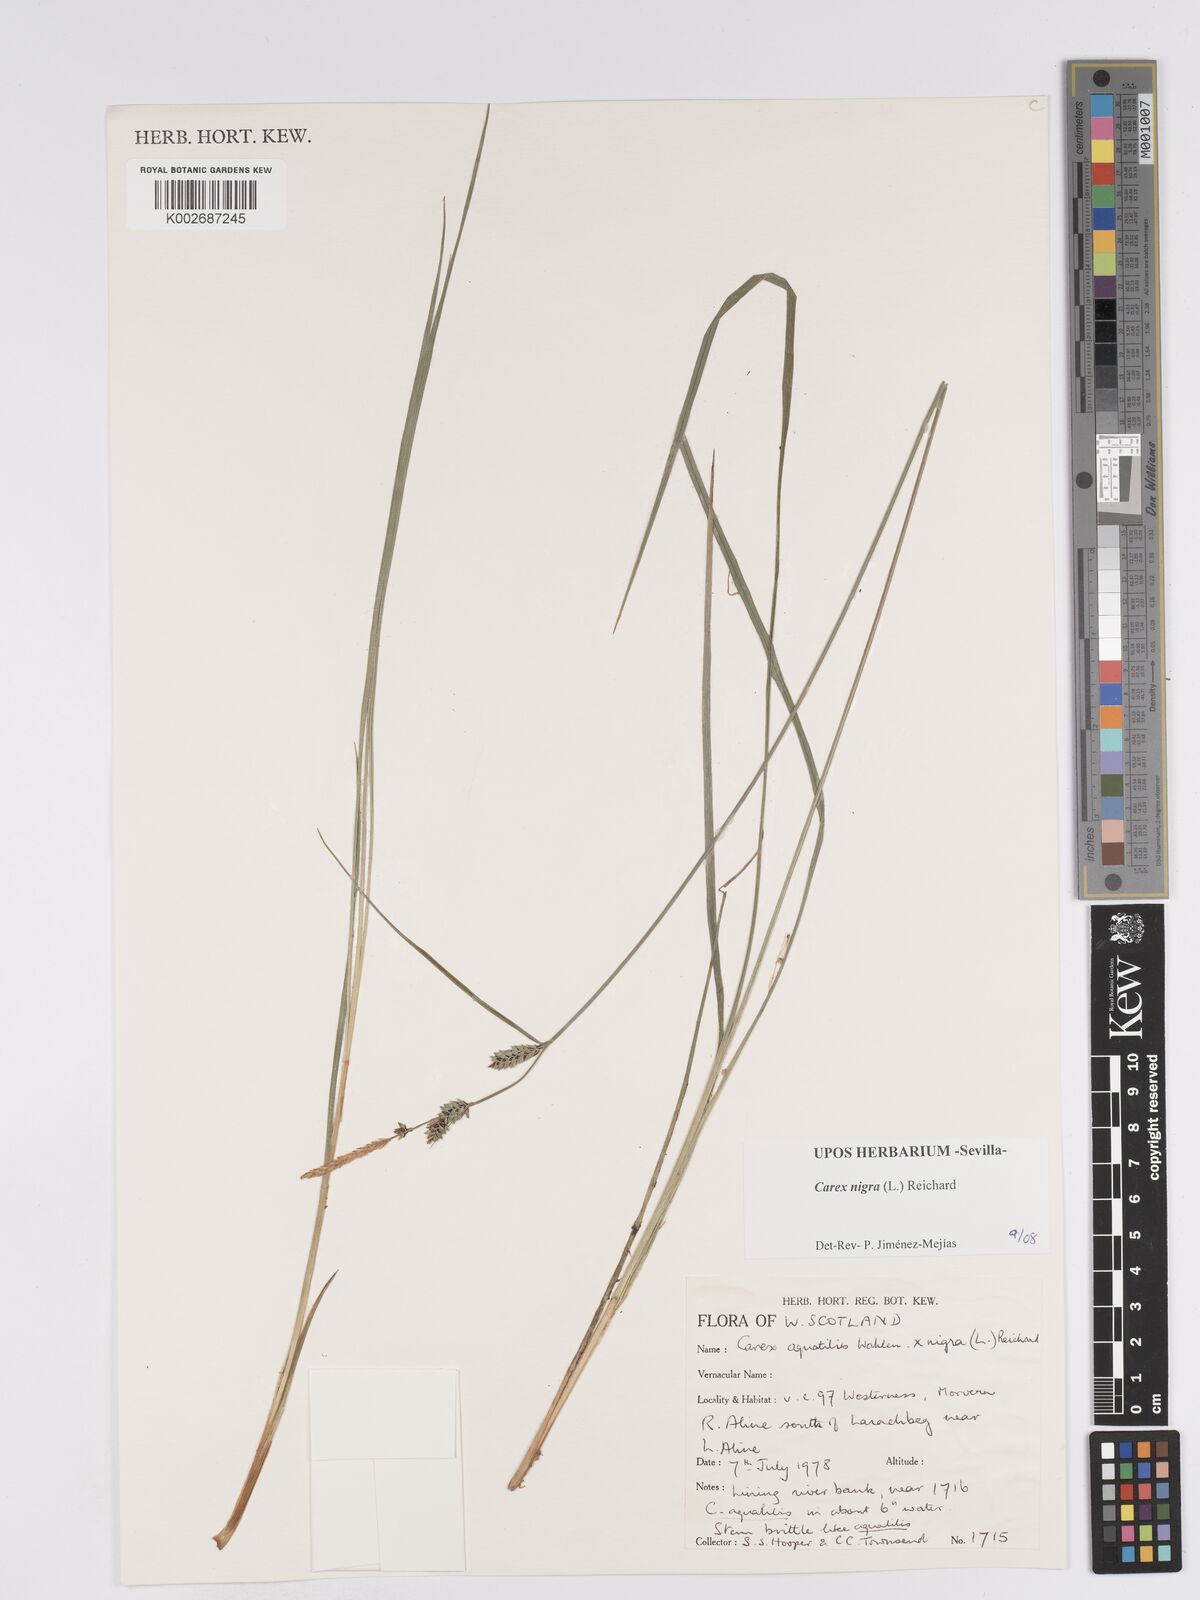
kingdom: Plantae
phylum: Tracheophyta
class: Liliopsida
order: Poales
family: Cyperaceae
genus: Carex
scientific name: Carex nigra
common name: Common sedge
